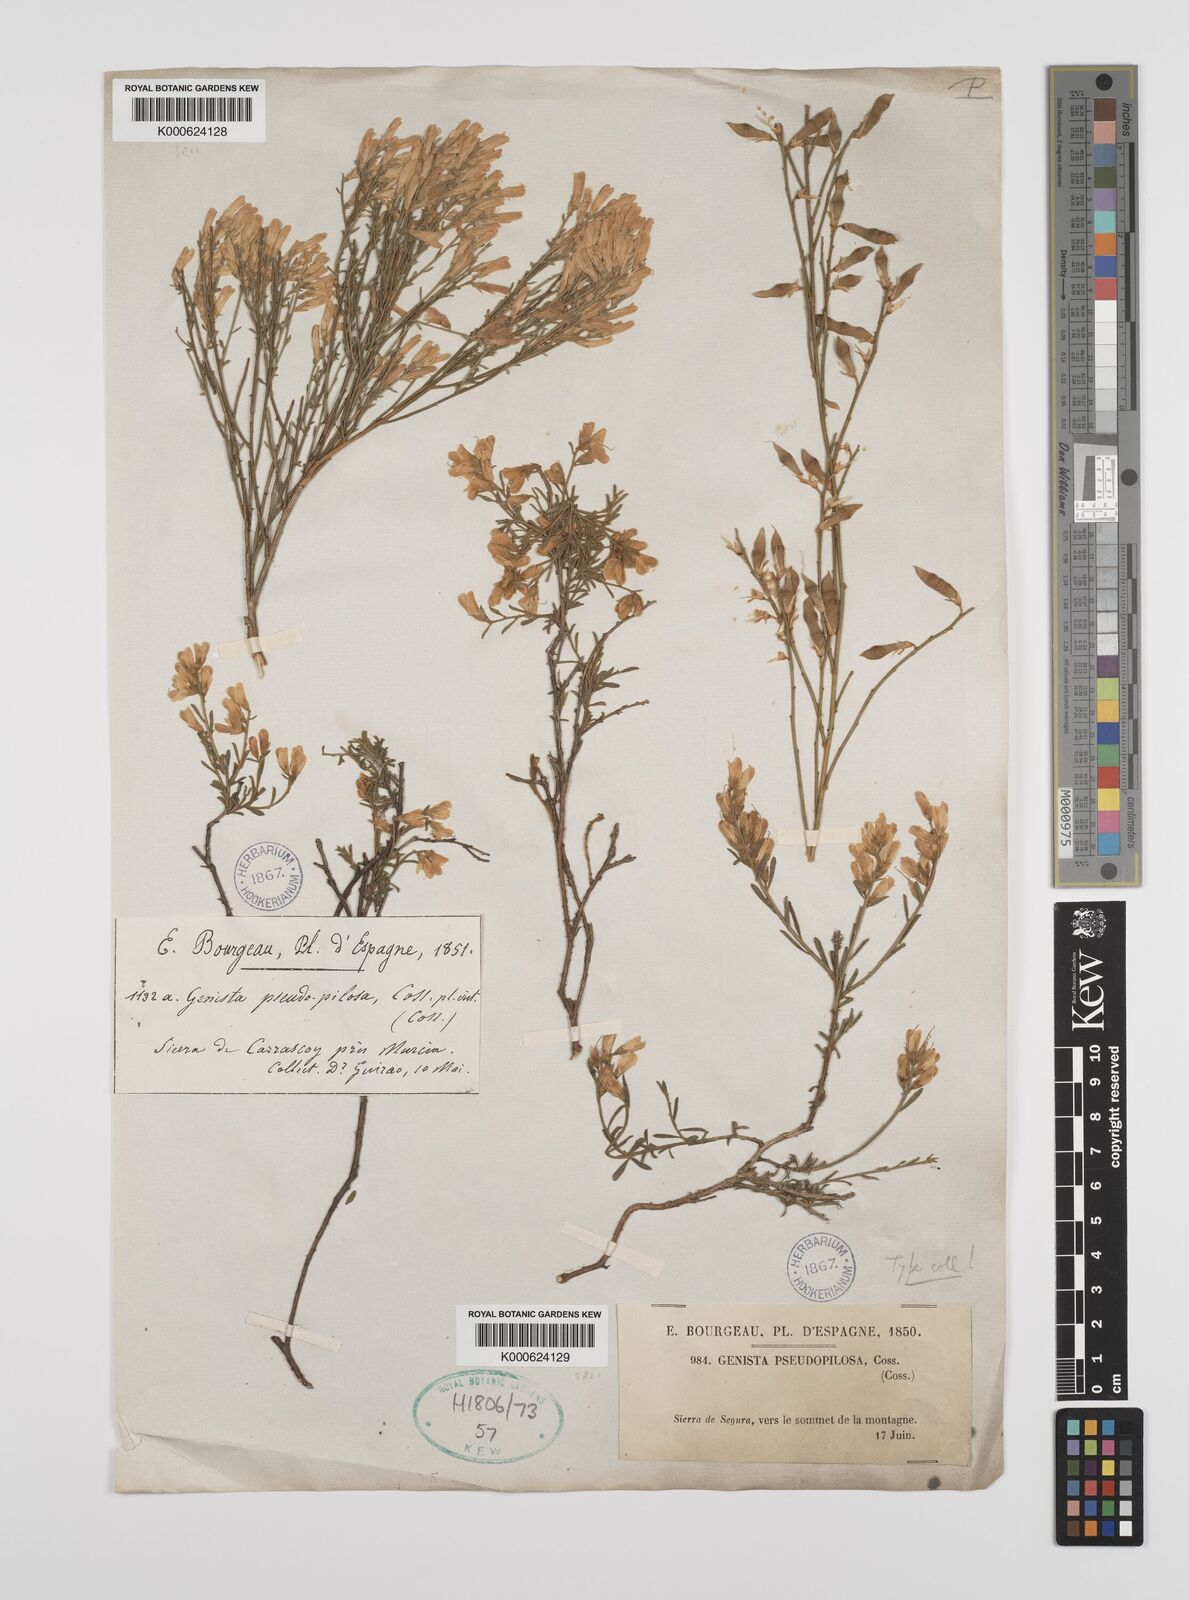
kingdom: Plantae
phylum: Tracheophyta
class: Magnoliopsida
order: Fabales
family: Fabaceae
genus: Genista
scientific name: Genista pseudopilosa
